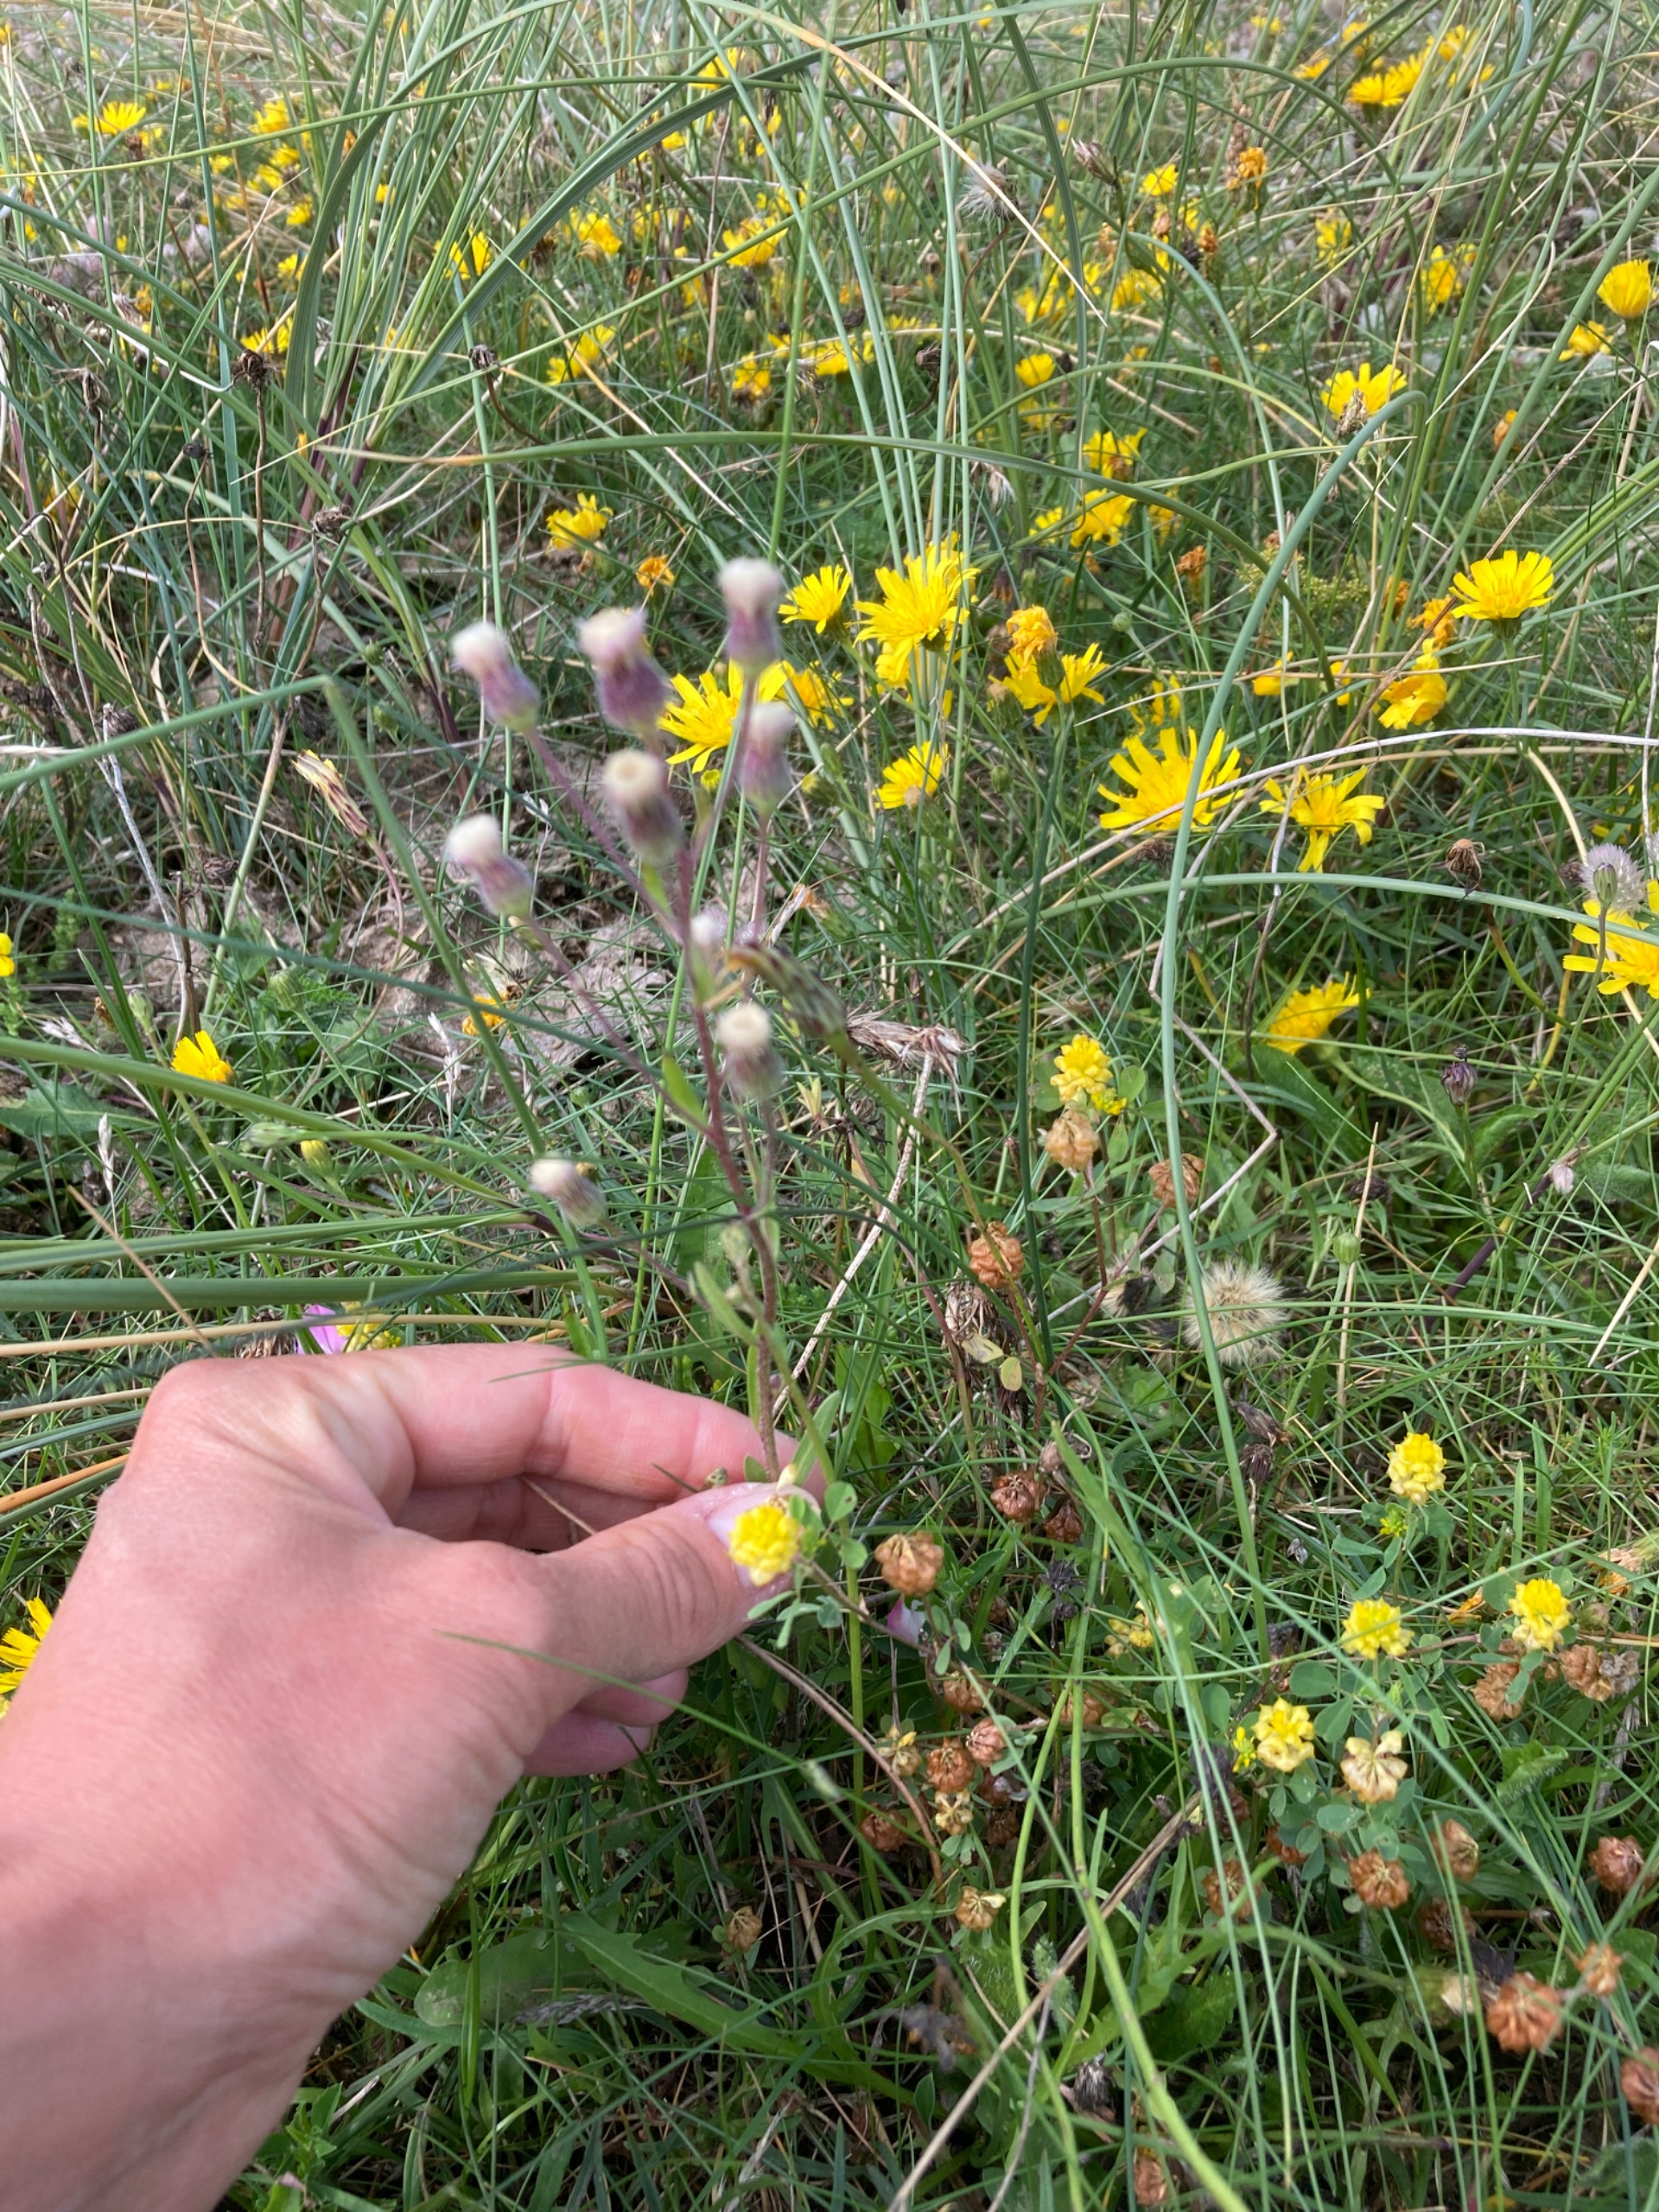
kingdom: Plantae
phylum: Tracheophyta
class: Magnoliopsida
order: Asterales
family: Asteraceae
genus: Erigeron
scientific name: Erigeron acris
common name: Bitter bakkestjerne
